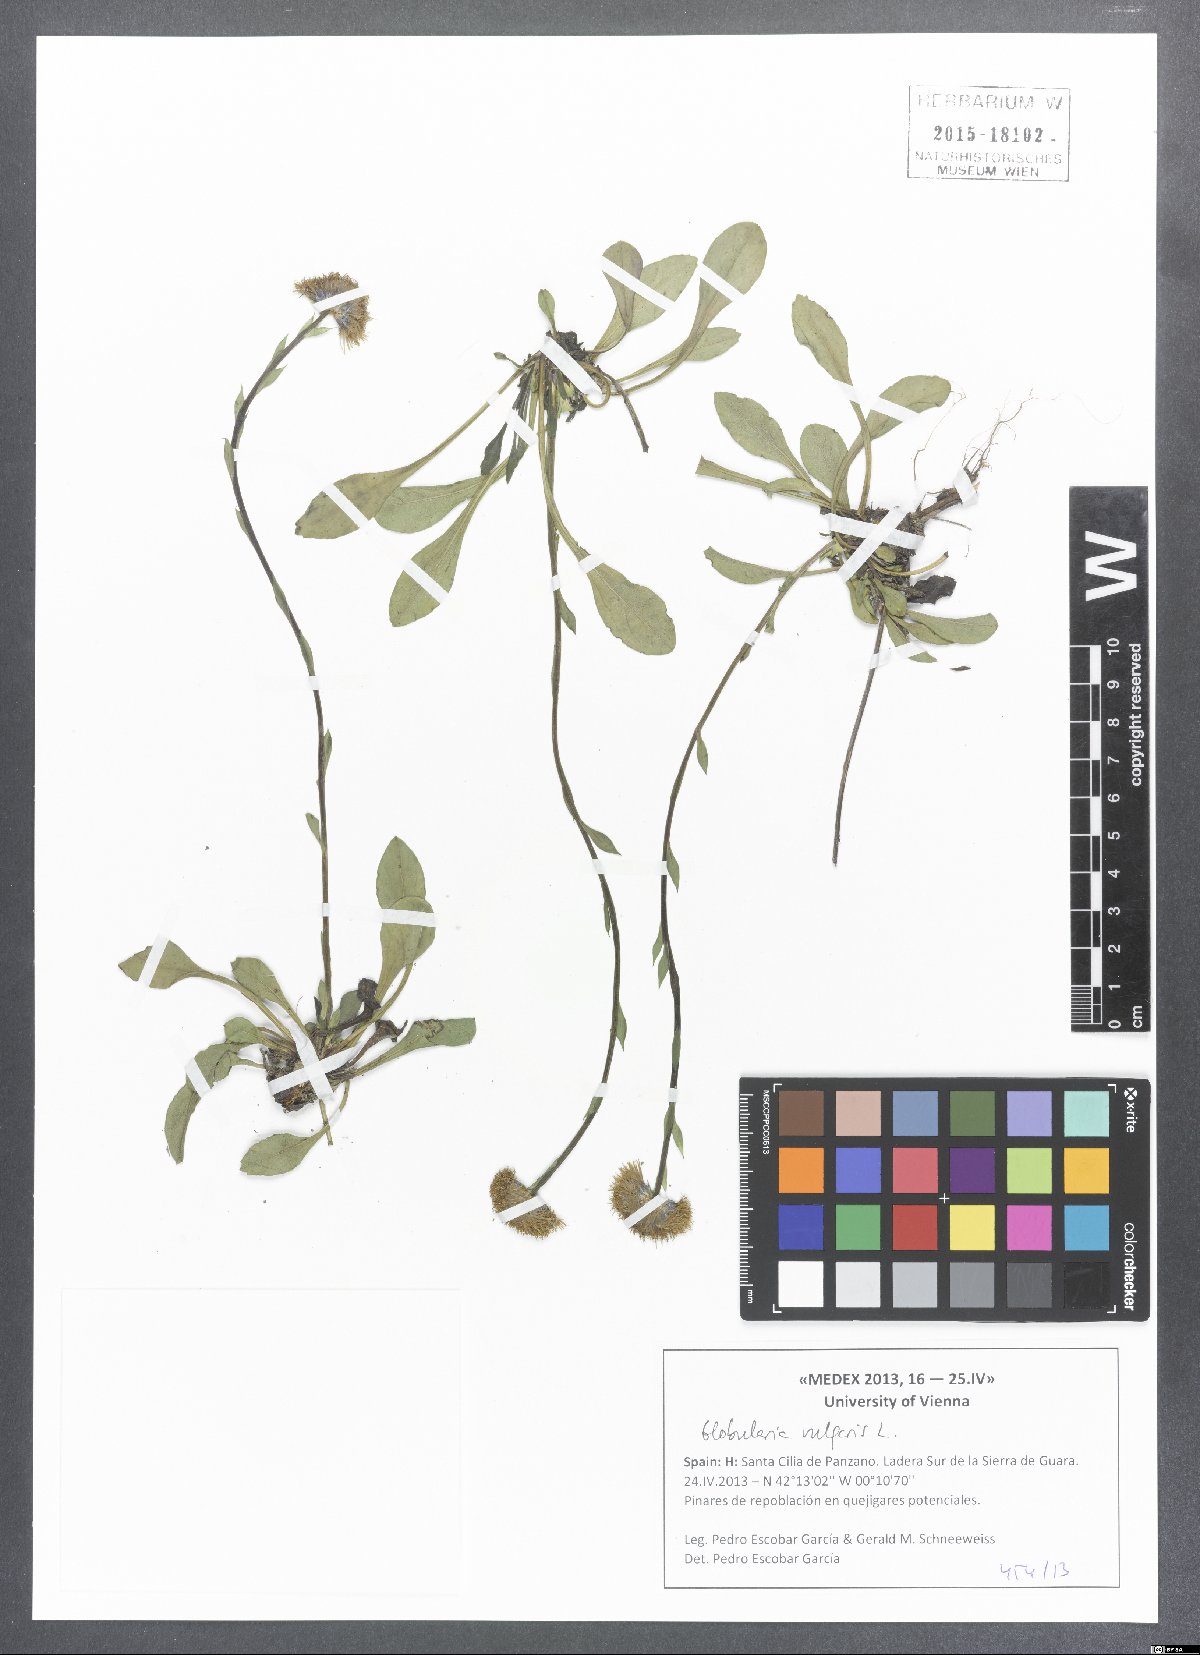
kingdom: Plantae
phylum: Tracheophyta
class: Magnoliopsida
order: Lamiales
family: Plantaginaceae
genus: Globularia
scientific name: Globularia vulgaris
